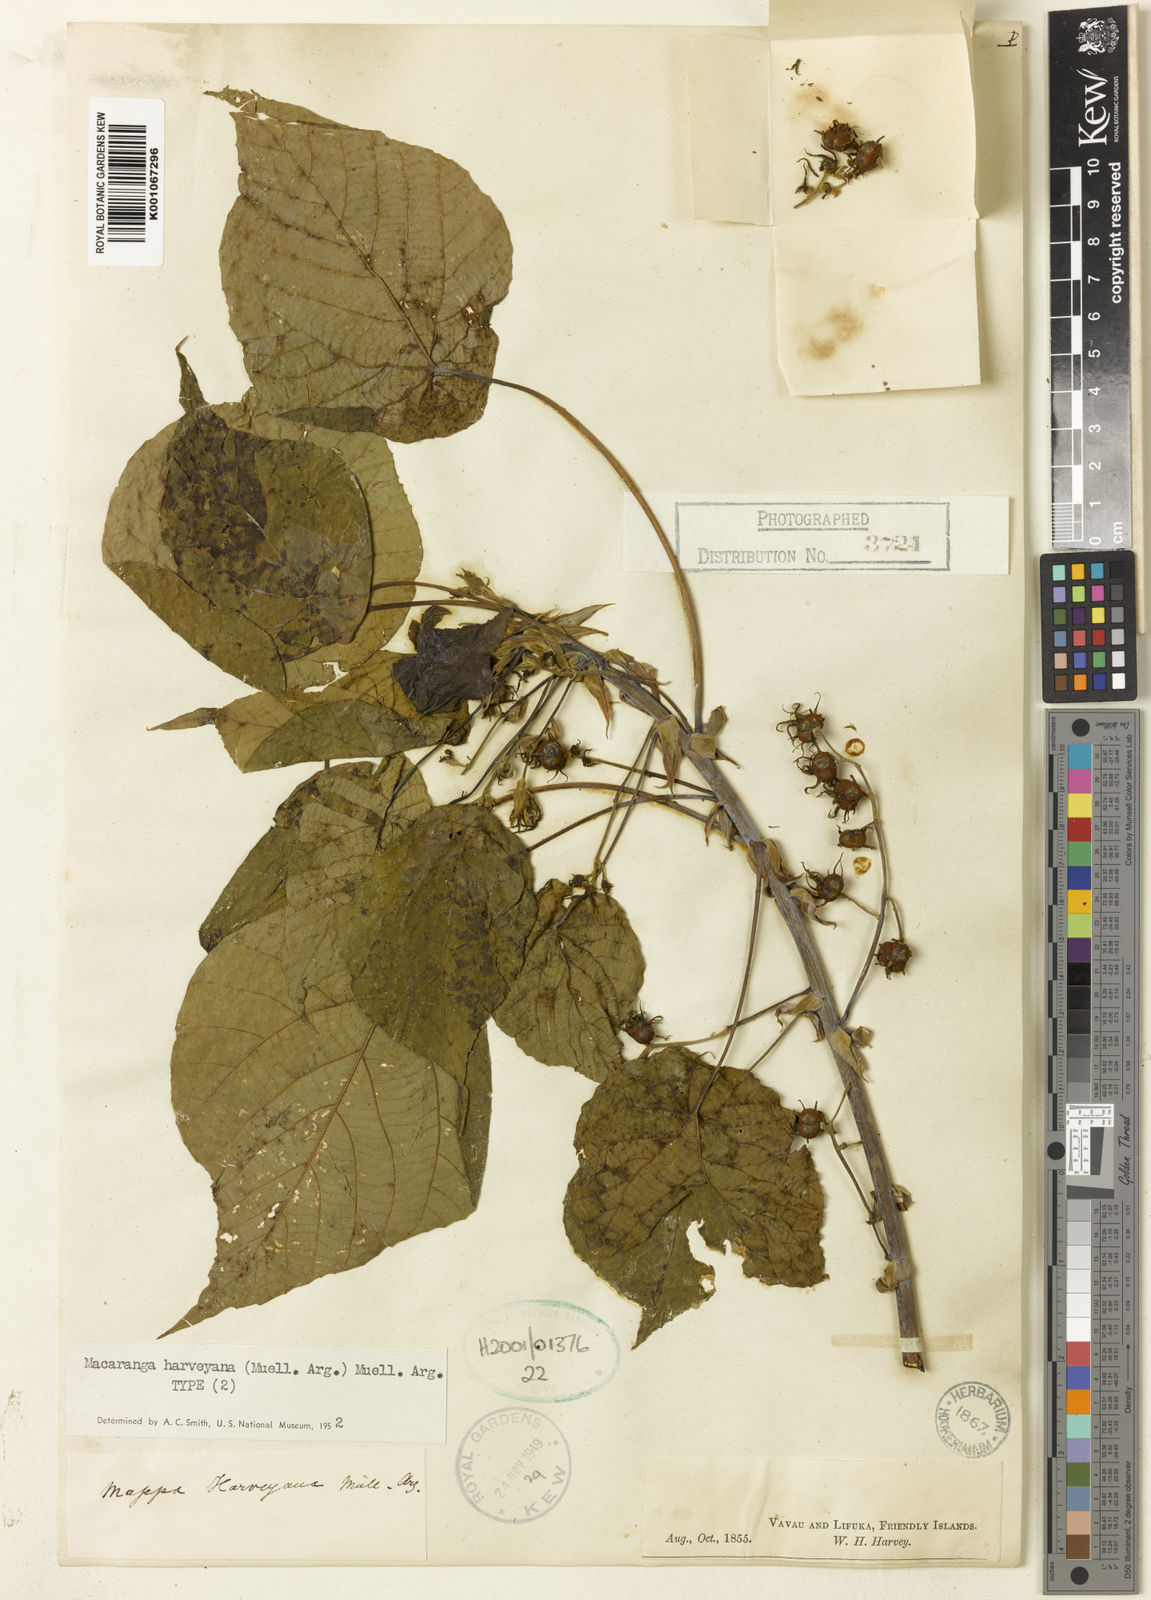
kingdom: Plantae
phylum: Tracheophyta
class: Magnoliopsida
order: Malpighiales
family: Euphorbiaceae
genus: Macaranga
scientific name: Macaranga
